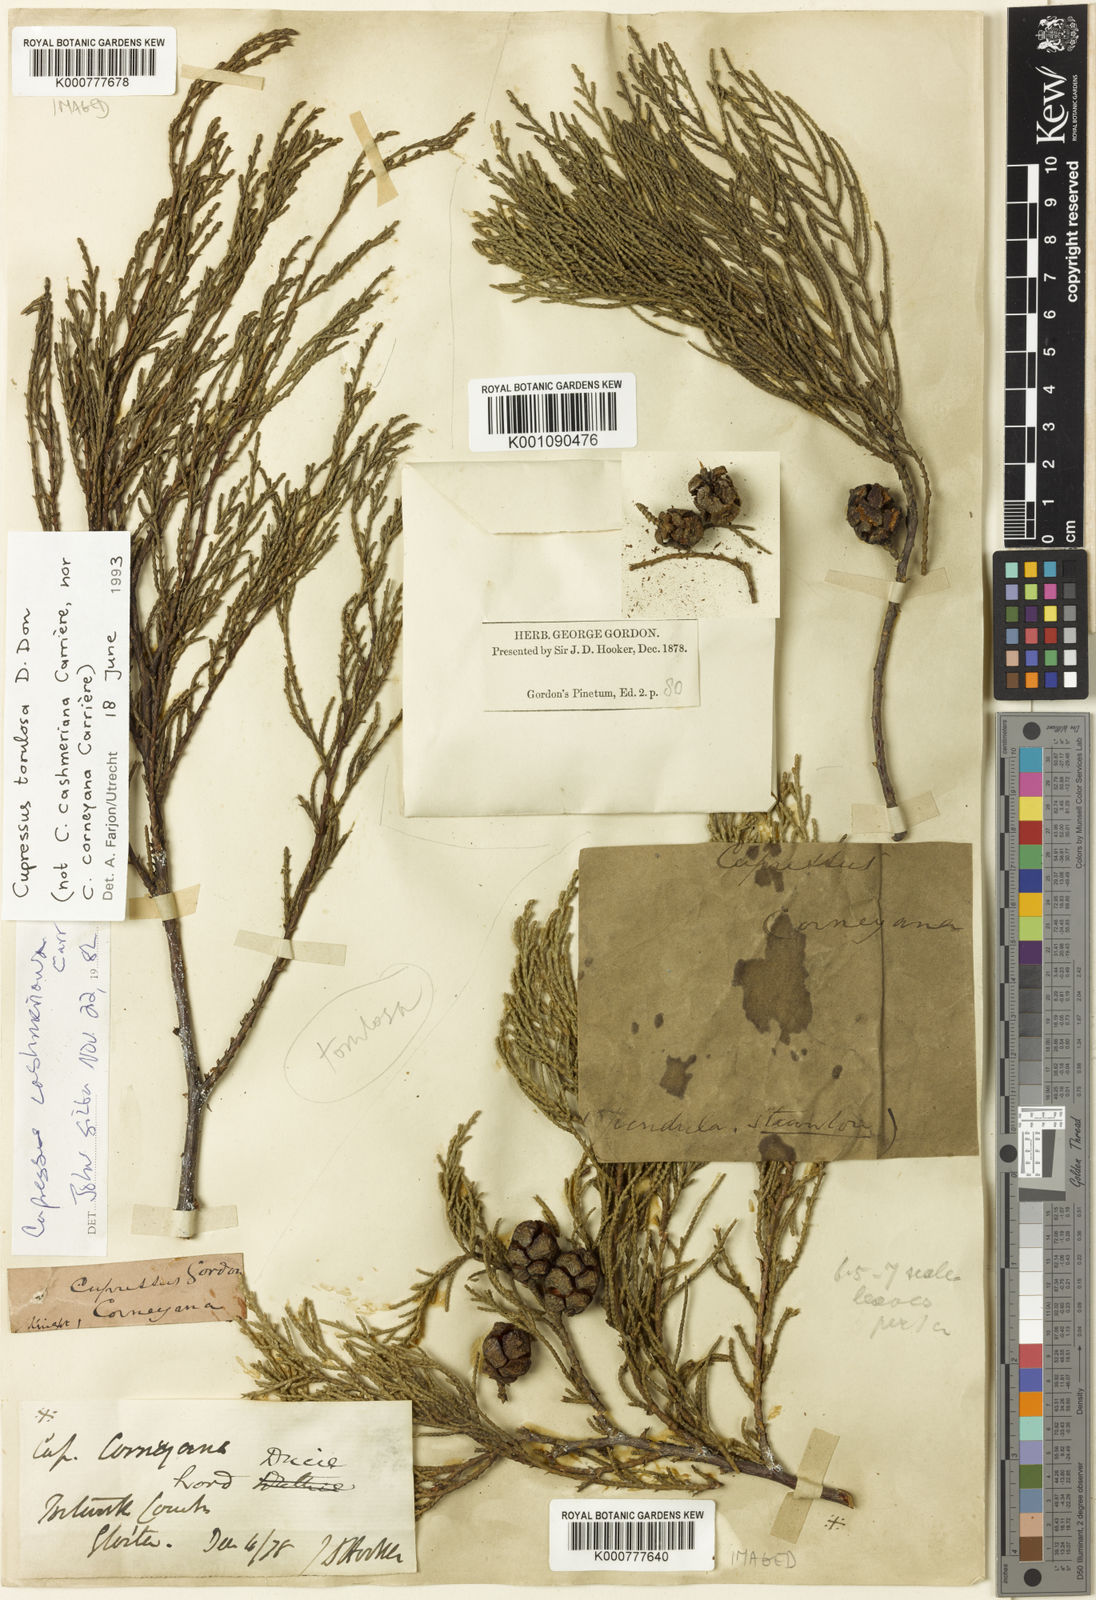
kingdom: Plantae
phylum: Tracheophyta
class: Pinopsida
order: Pinales
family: Cupressaceae
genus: Cupressus
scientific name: Cupressus
